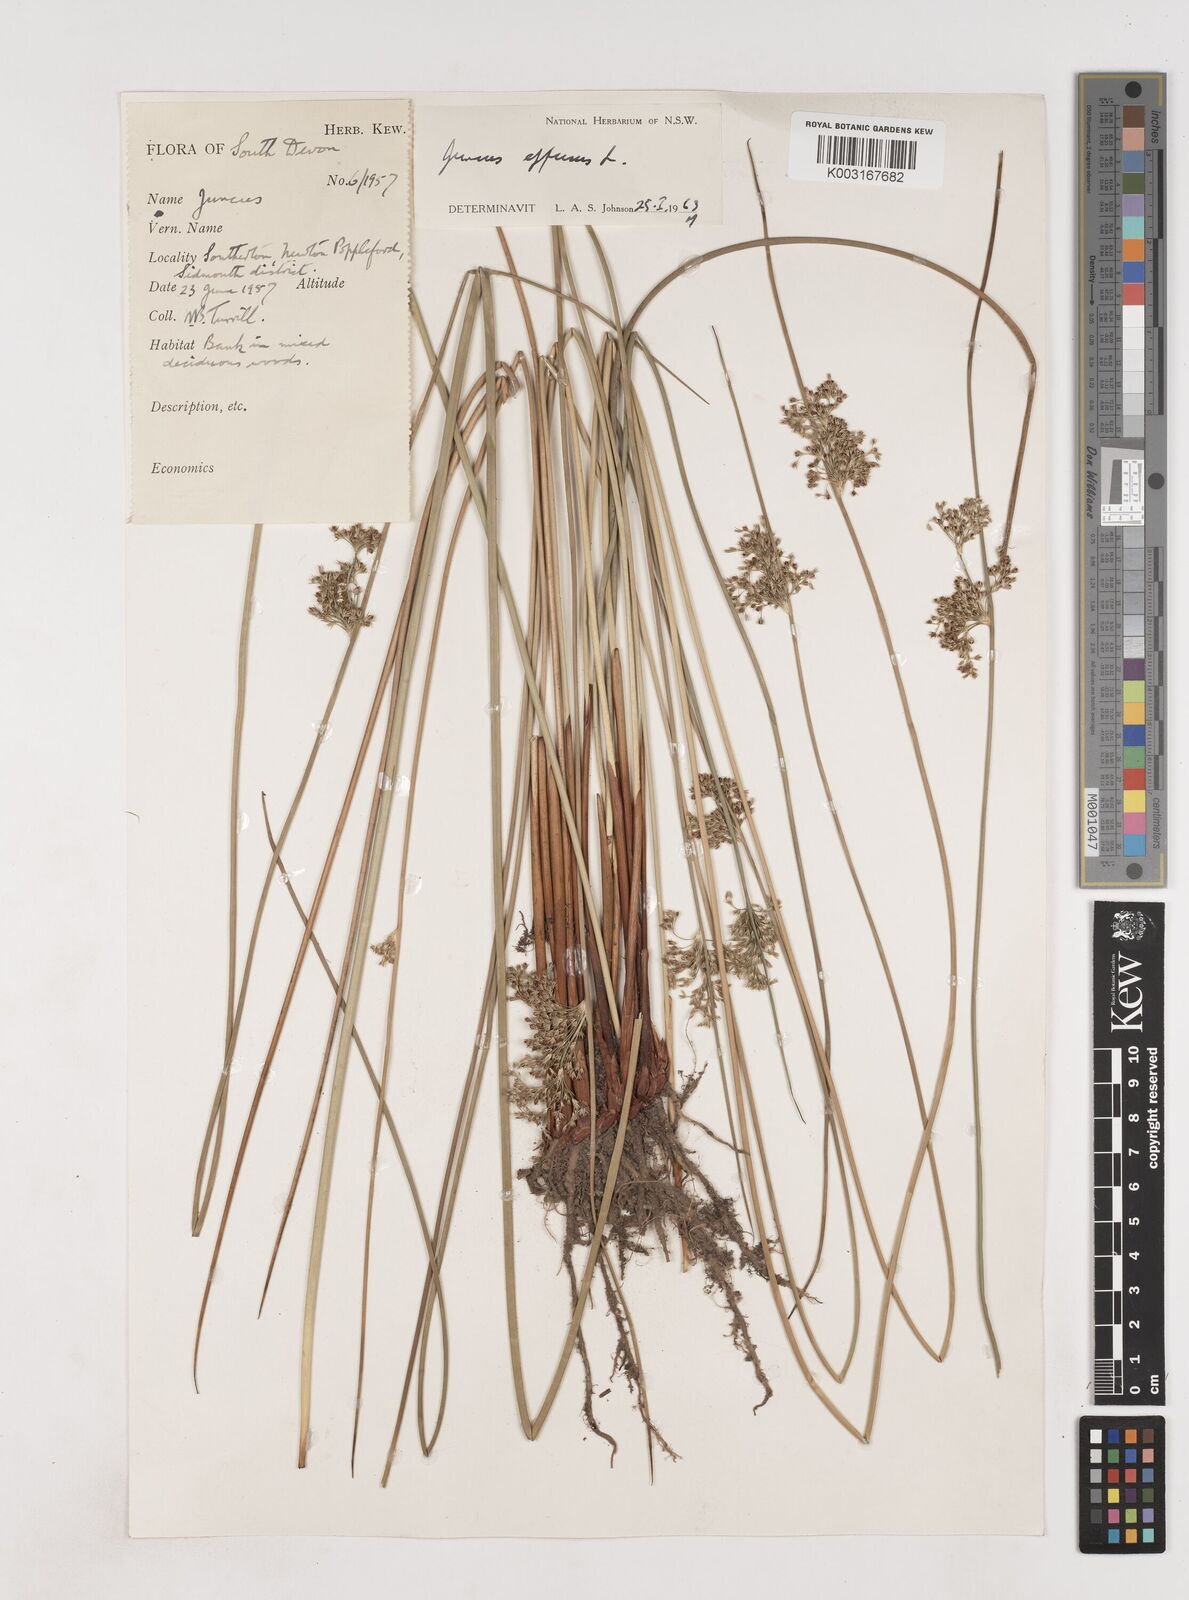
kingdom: Plantae
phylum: Tracheophyta
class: Liliopsida
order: Poales
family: Juncaceae
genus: Juncus
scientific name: Juncus effusus
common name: Soft rush
